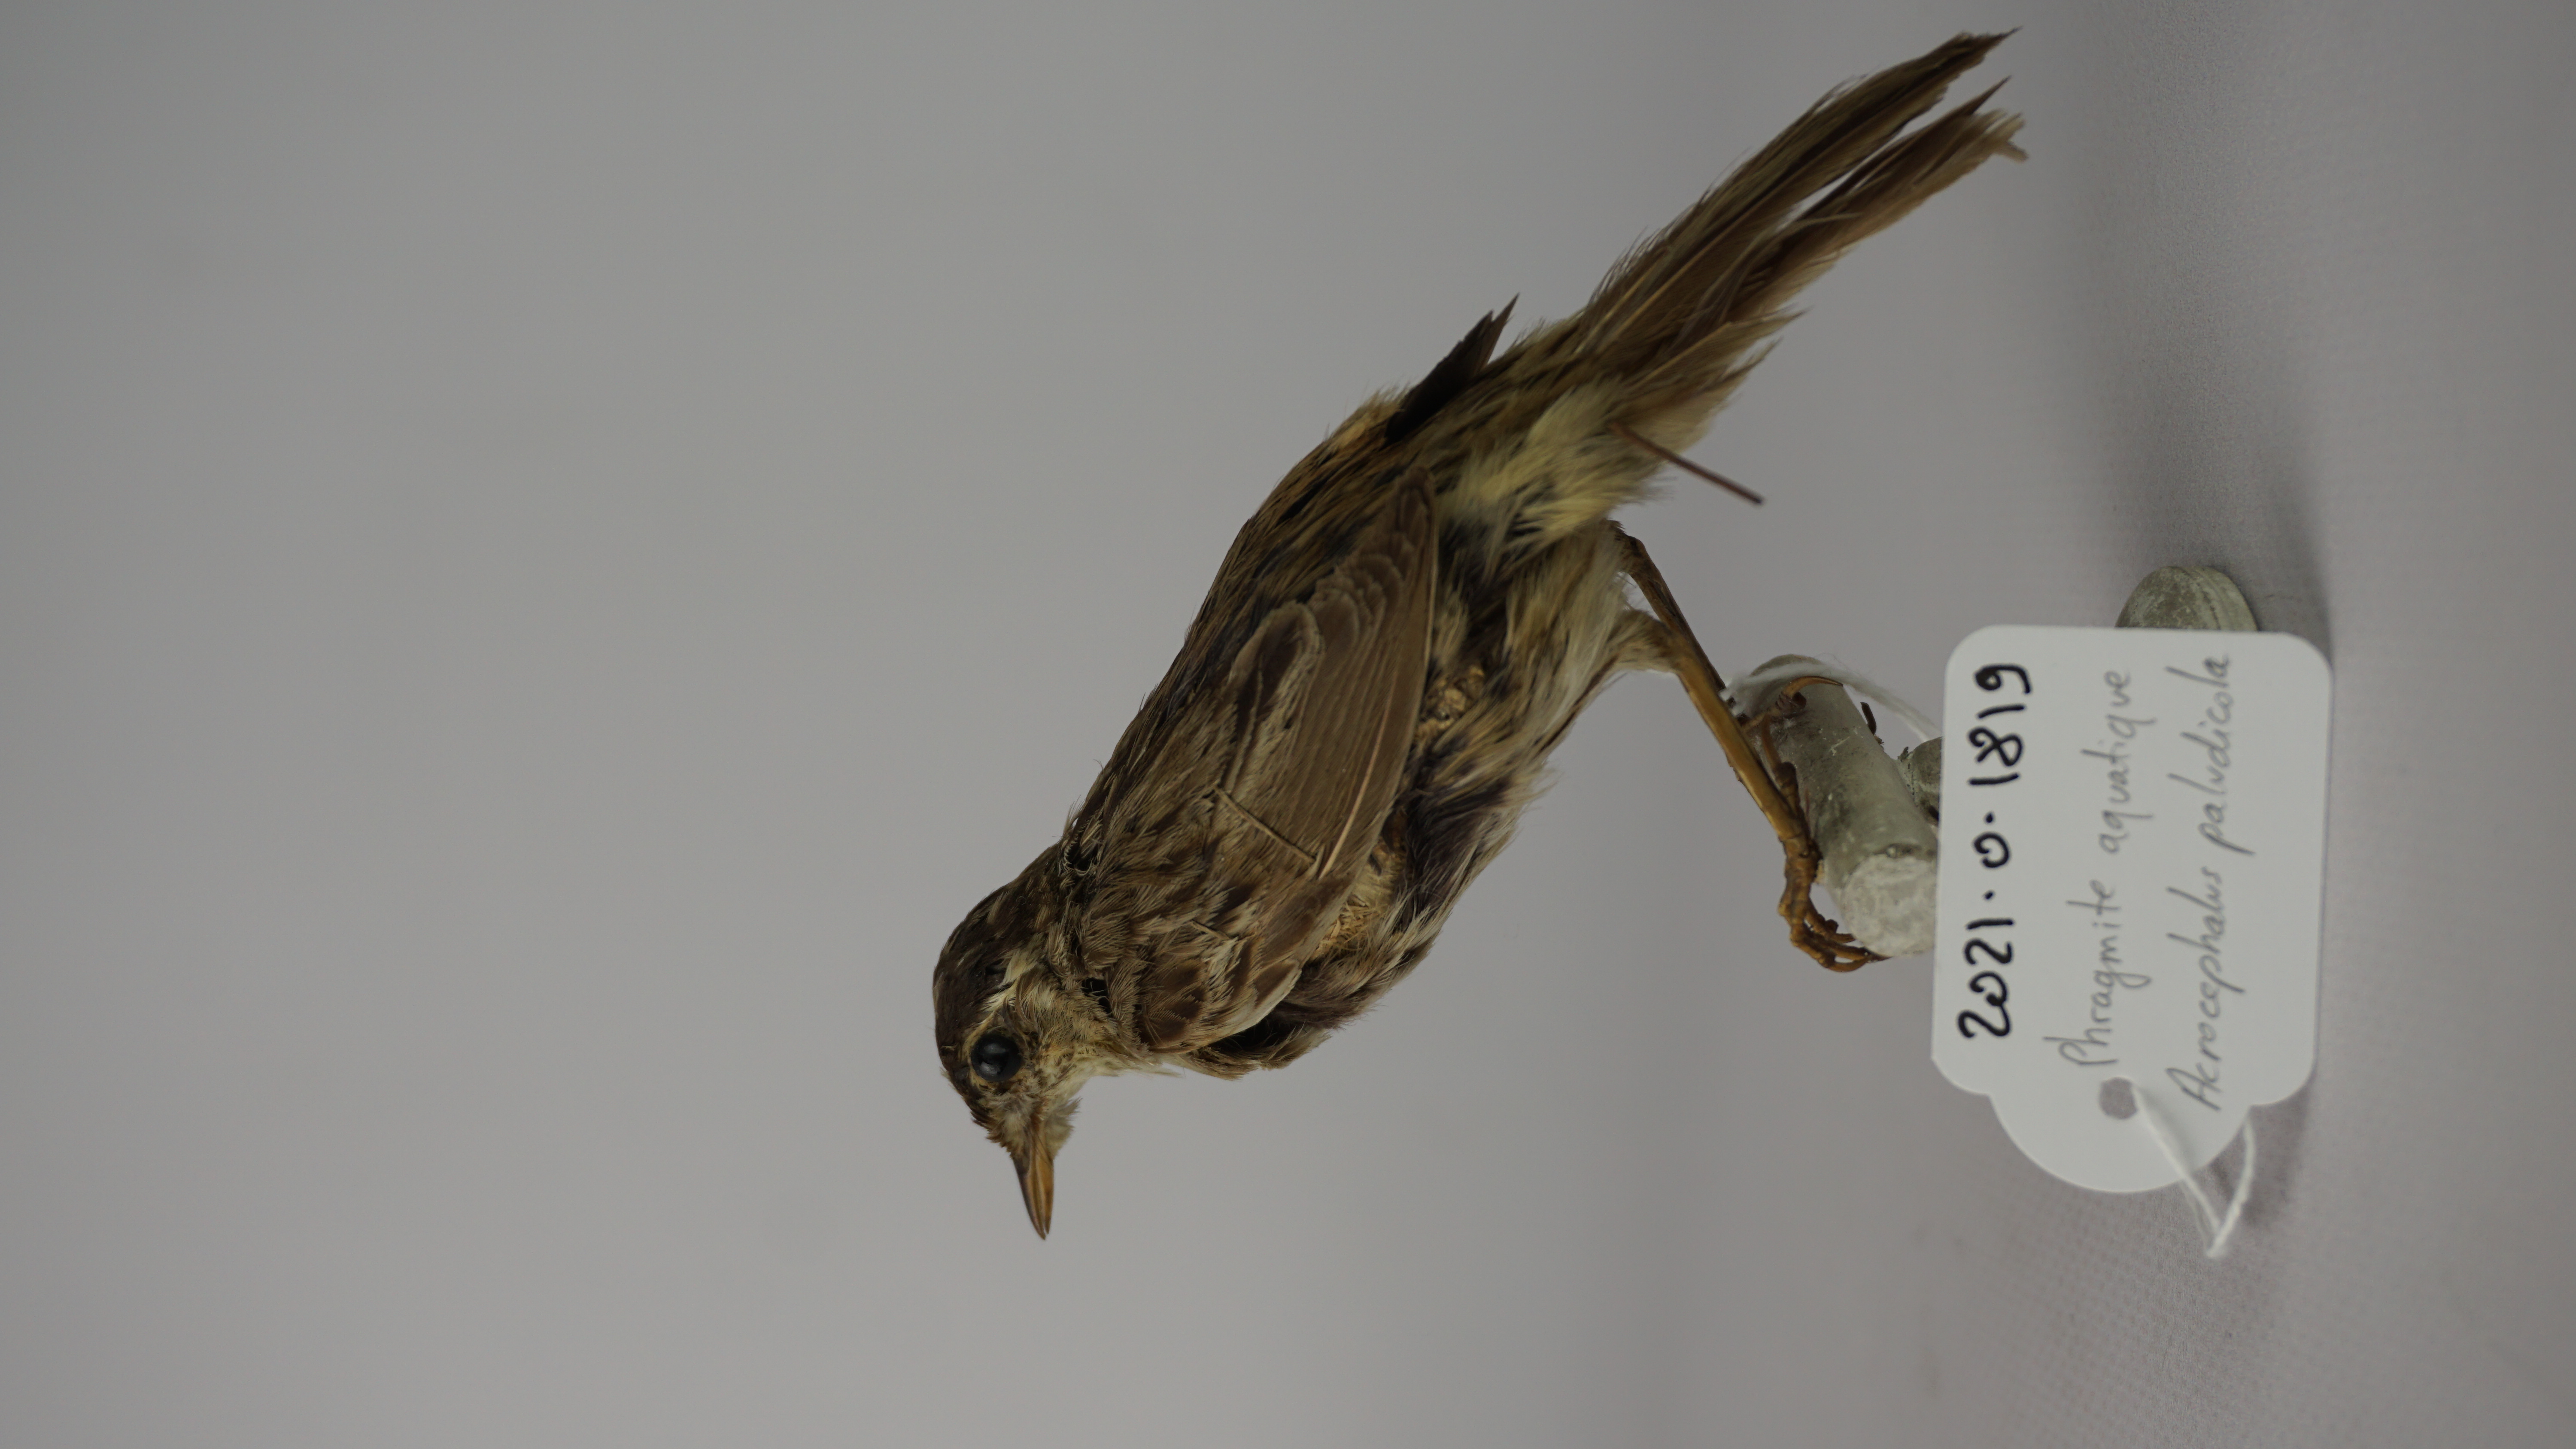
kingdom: Animalia
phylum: Chordata
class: Aves
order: Passeriformes
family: Acrocephalidae
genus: Acrocephalus
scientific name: Acrocephalus paludicola
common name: Aquatic warbler
